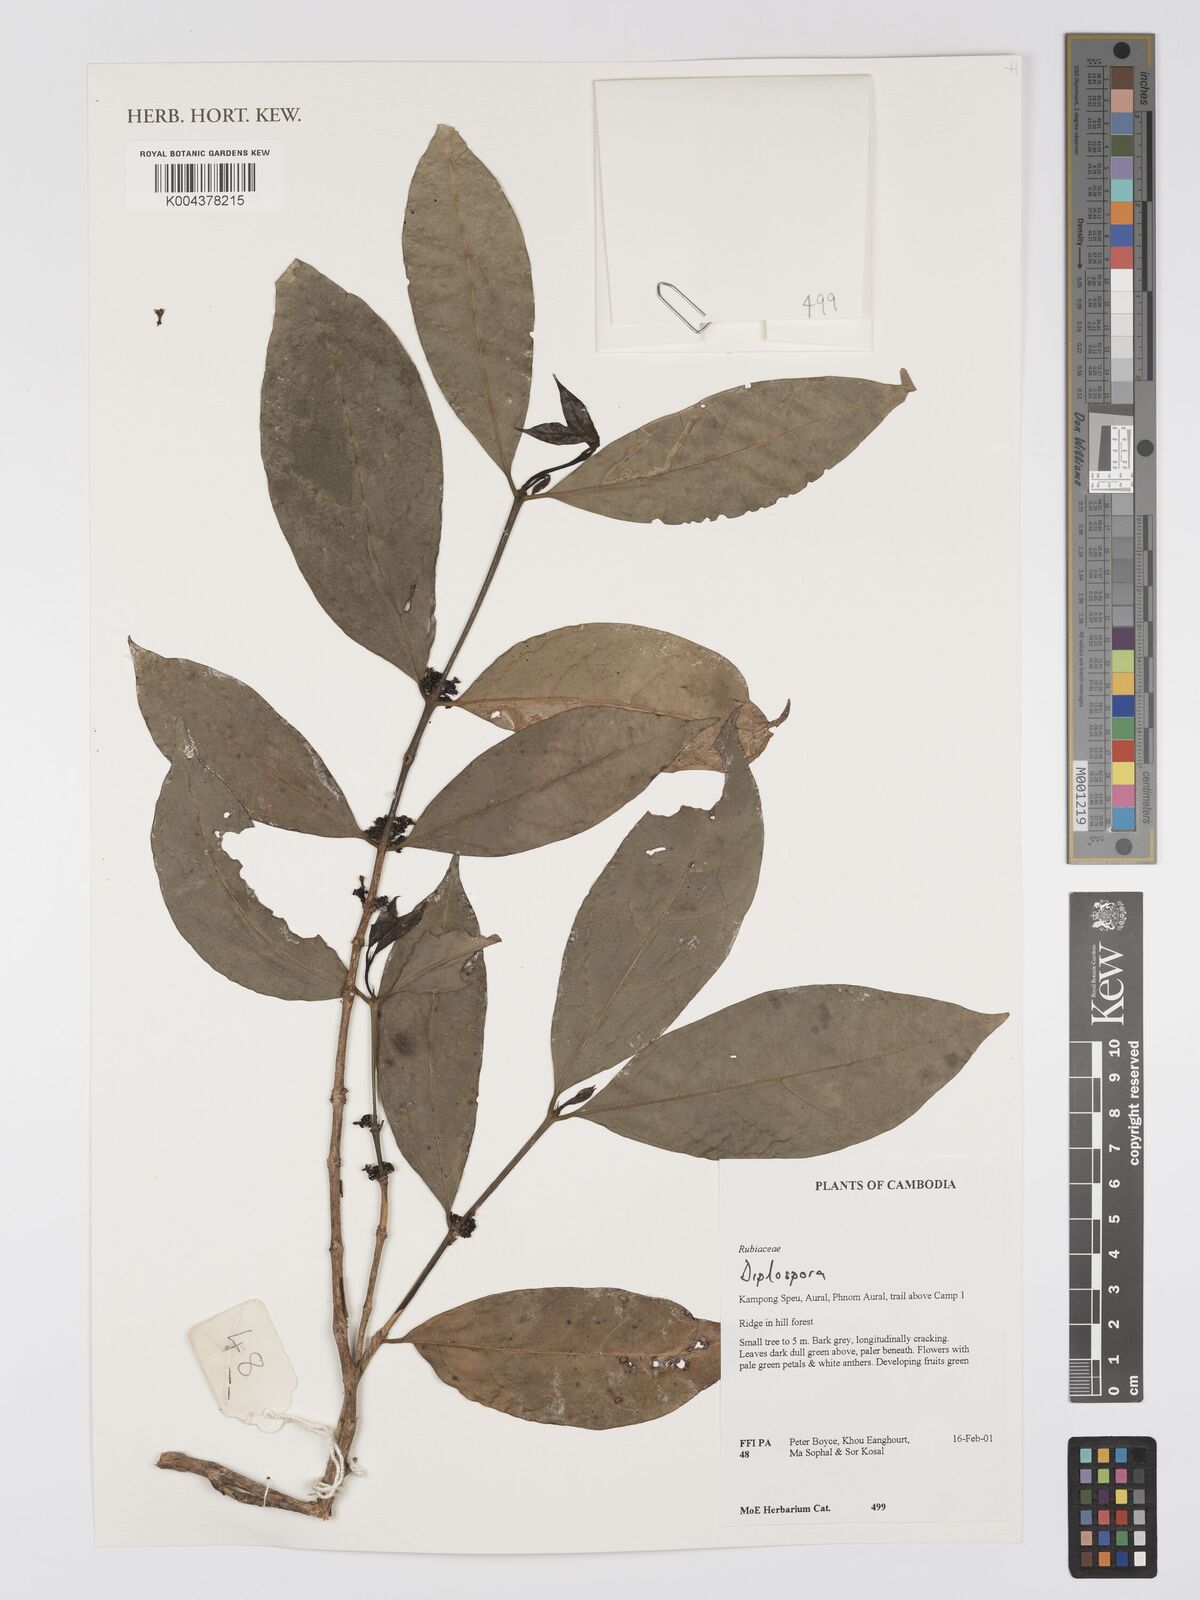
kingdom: Plantae
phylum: Tracheophyta
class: Magnoliopsida
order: Gentianales
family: Rubiaceae
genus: Diplospora
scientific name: Diplospora
